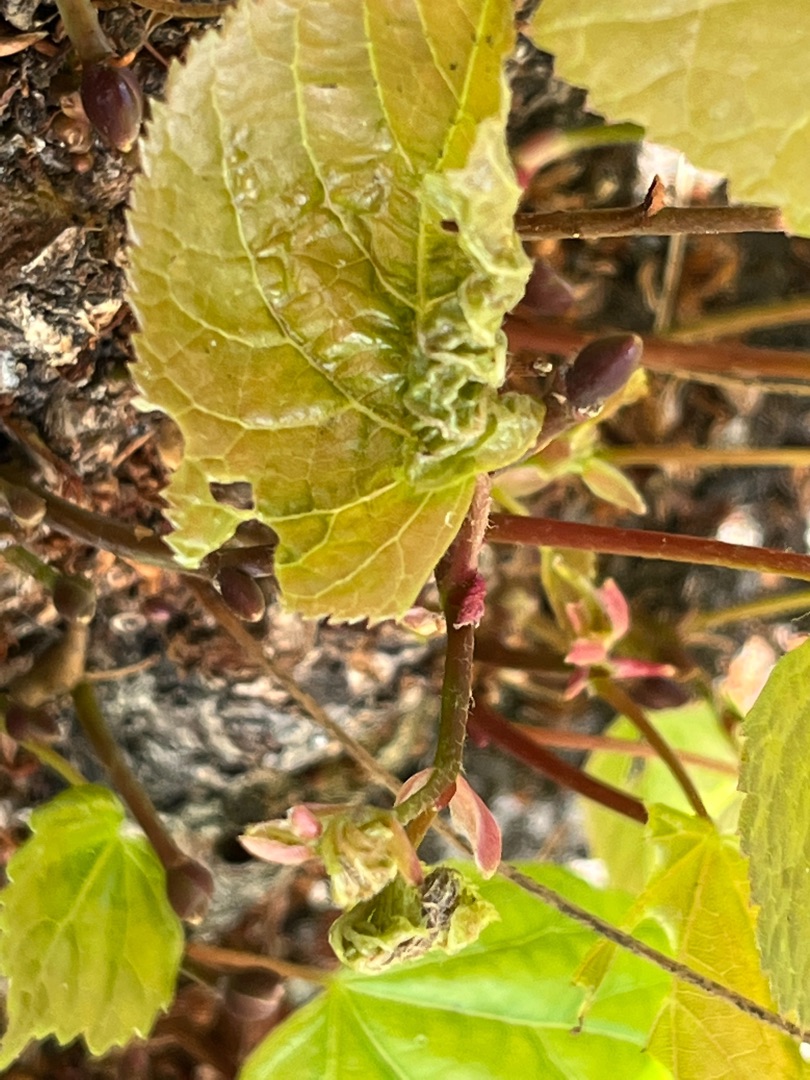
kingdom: Animalia
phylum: Arthropoda
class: Insecta
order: Diptera
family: Cecidomyiidae
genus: Dasineura
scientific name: Dasineura thomasiana
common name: Lindekrusegalmyg
